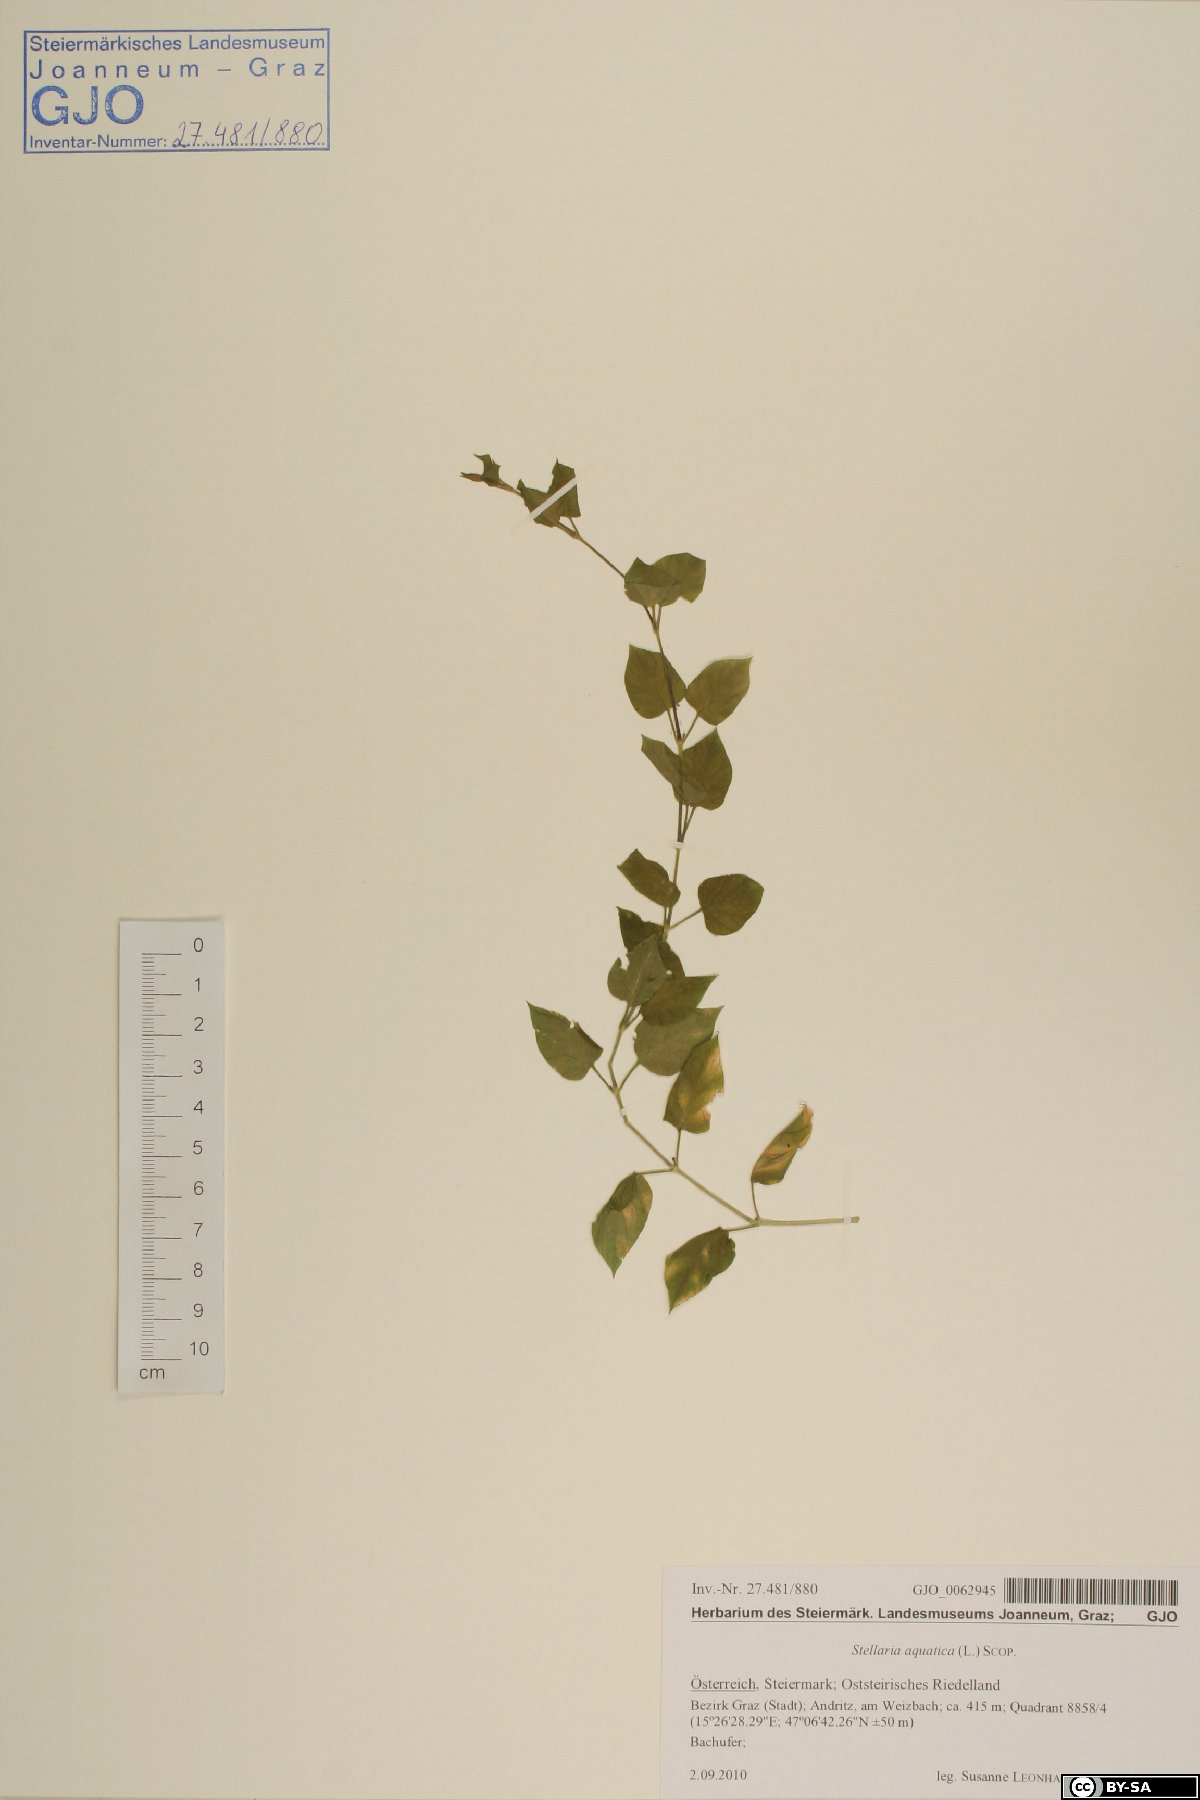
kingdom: Plantae
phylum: Tracheophyta
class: Magnoliopsida
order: Caryophyllales
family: Caryophyllaceae
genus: Stellaria
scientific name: Stellaria aquatica
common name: Water chickweed
